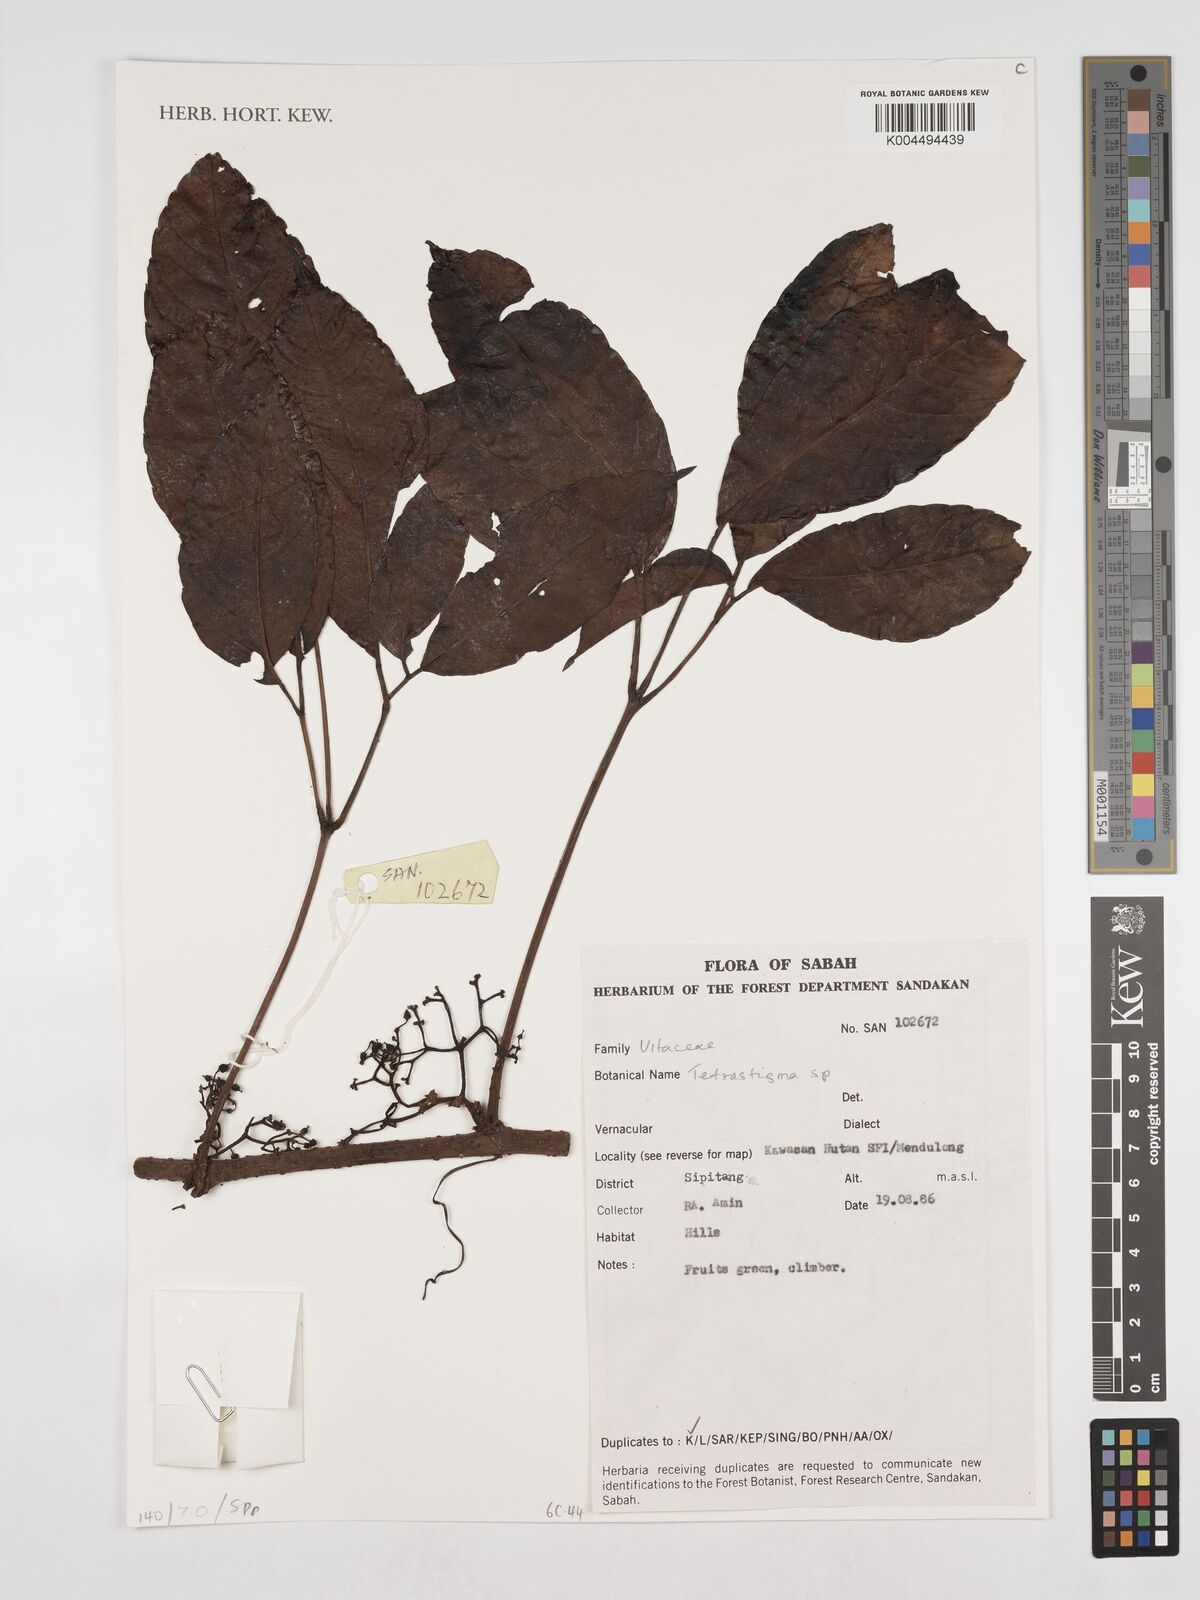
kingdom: Plantae
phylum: Tracheophyta
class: Magnoliopsida
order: Vitales
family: Vitaceae
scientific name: Vitaceae
